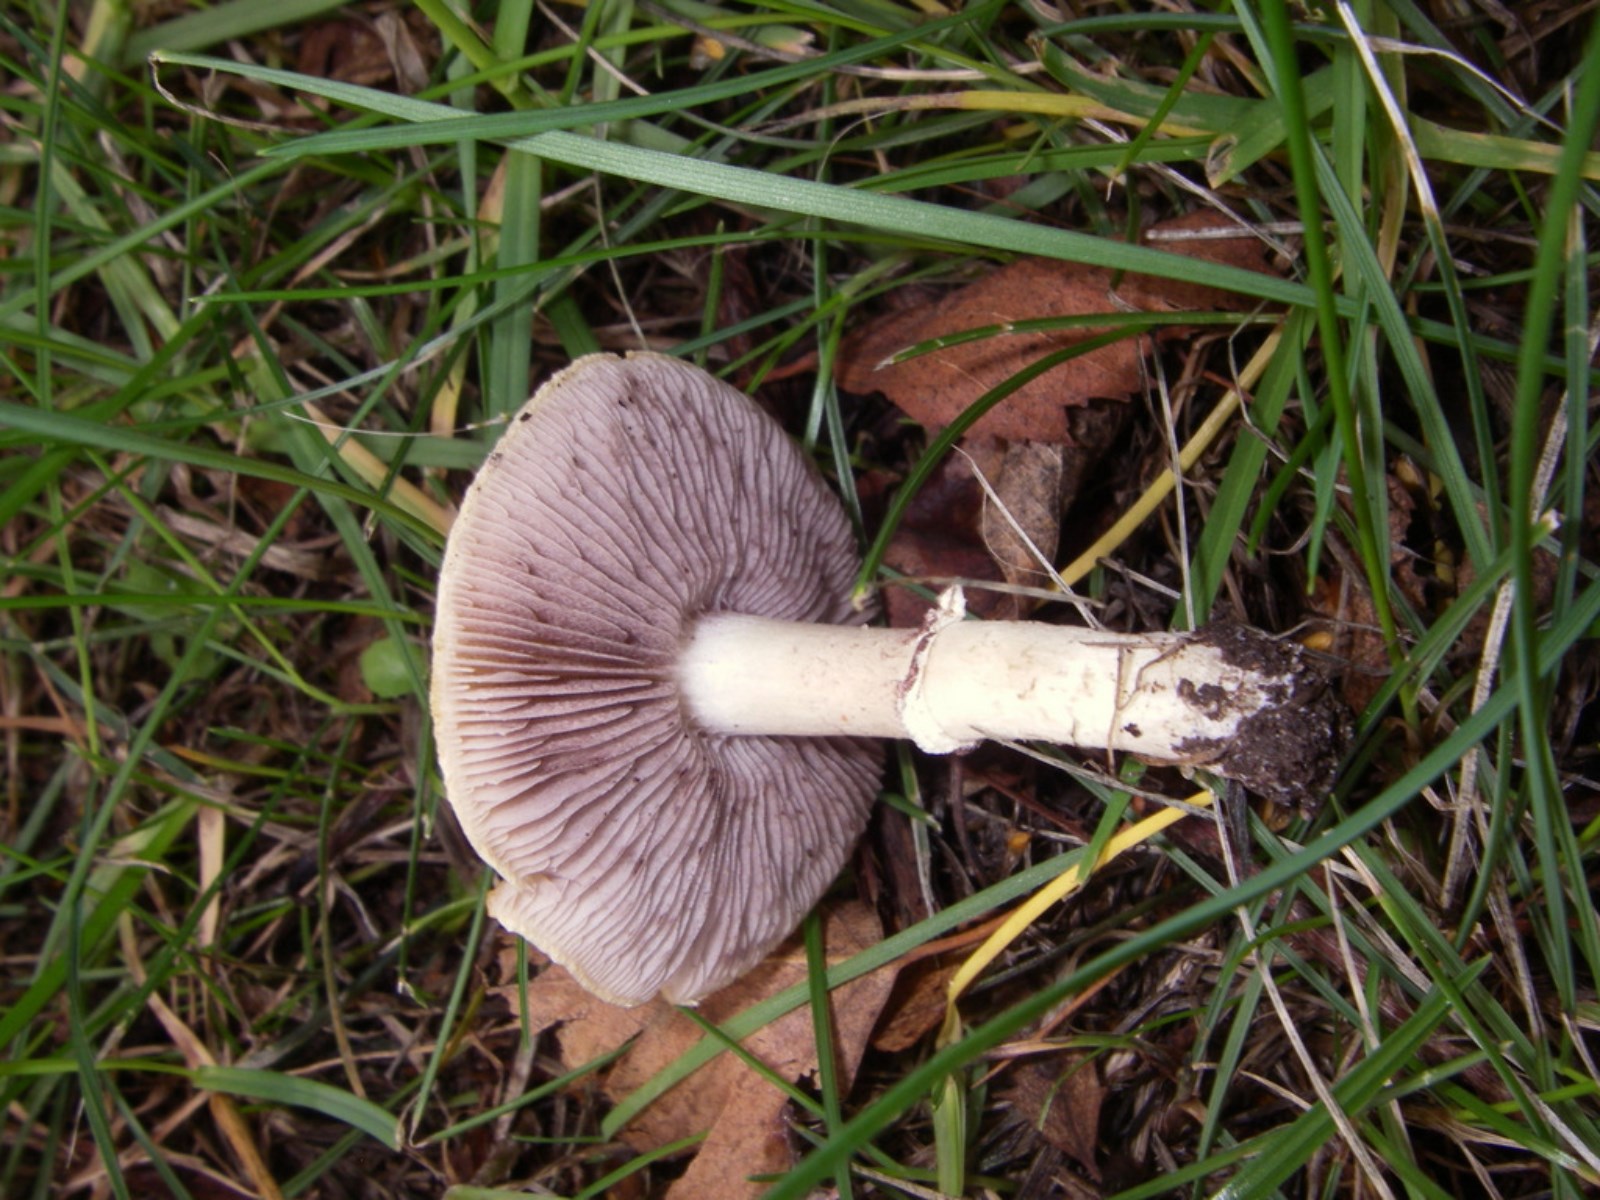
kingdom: Fungi
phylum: Basidiomycota
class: Agaricomycetes
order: Agaricales
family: Hymenogastraceae
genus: Psilocybe
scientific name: Psilocybe coronilla
